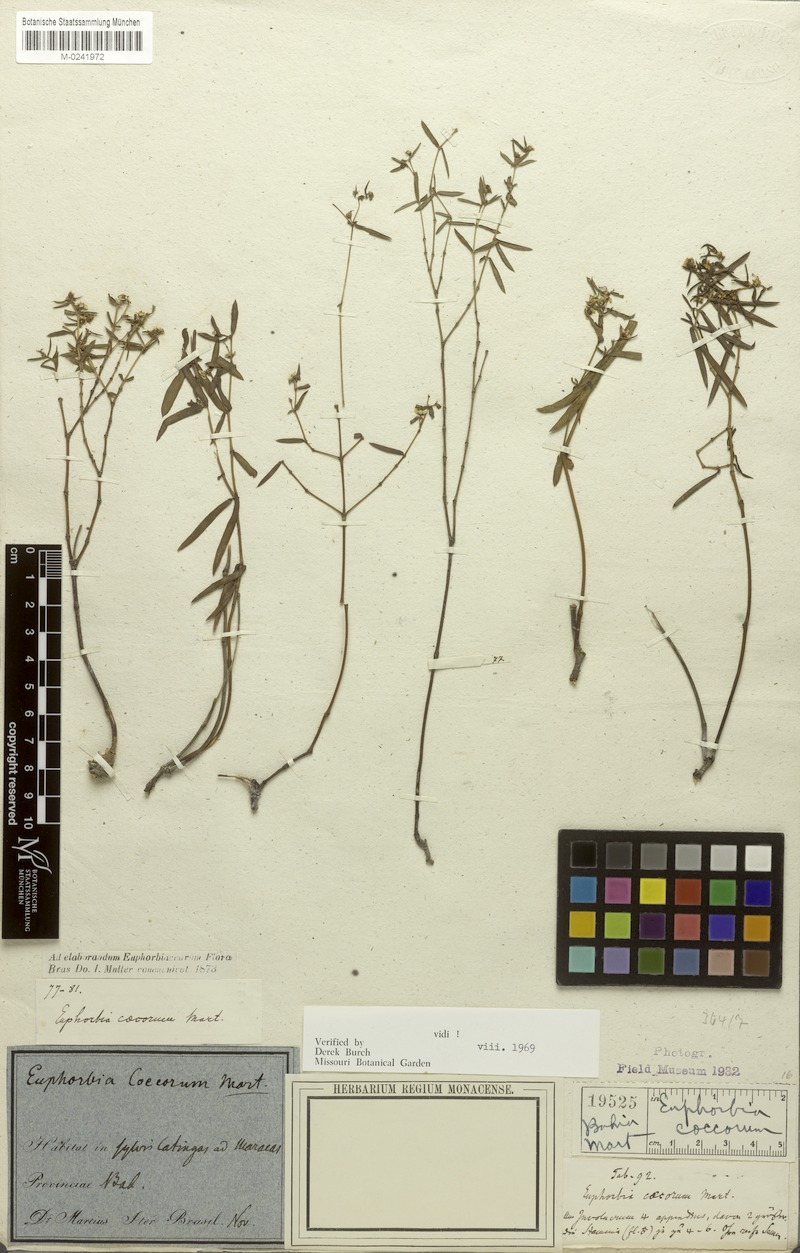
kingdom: Plantae
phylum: Tracheophyta
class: Magnoliopsida
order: Malpighiales
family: Euphorbiaceae
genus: Euphorbia
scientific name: Euphorbia potentilloides
